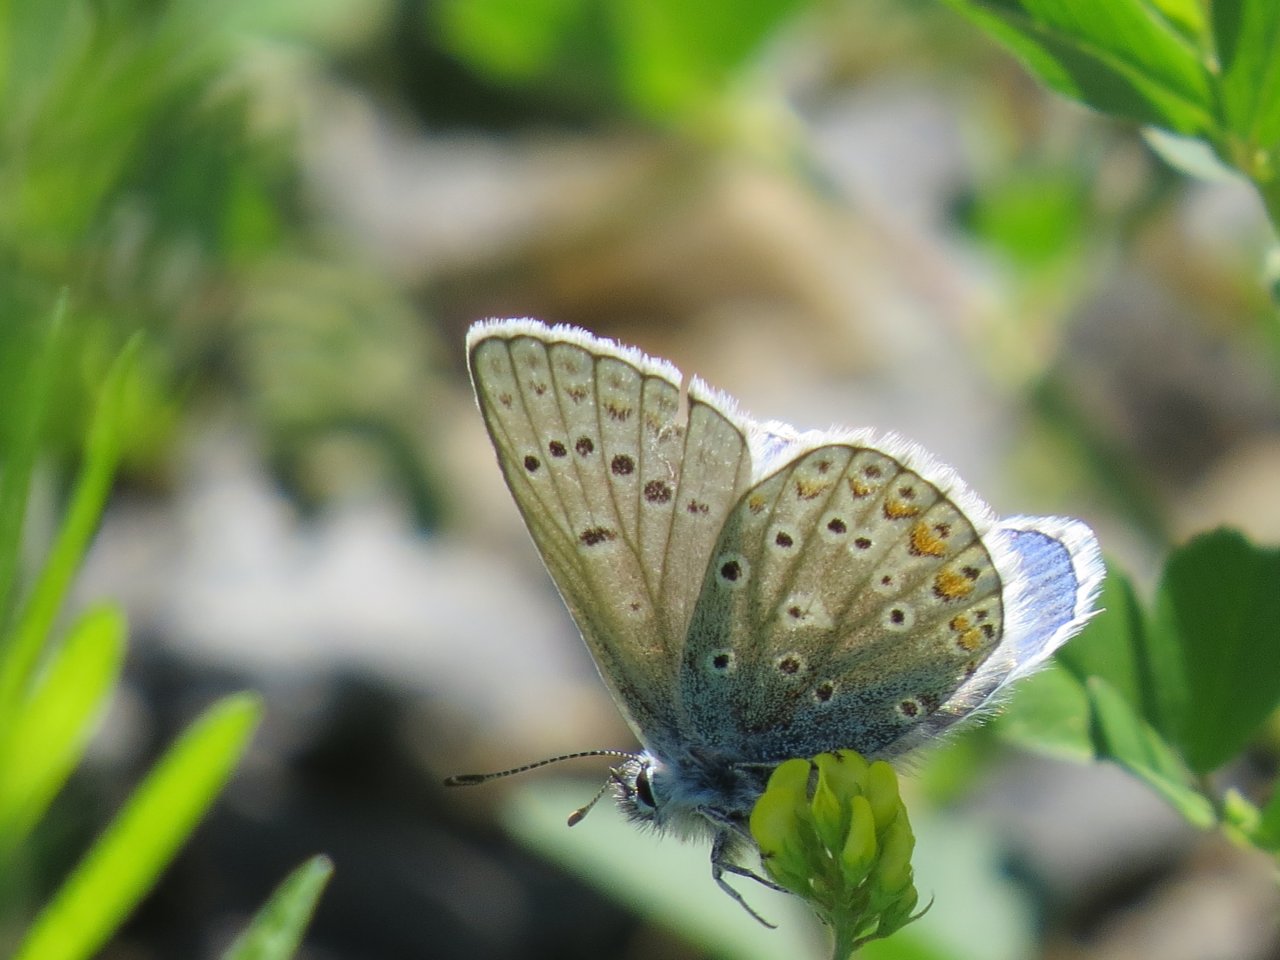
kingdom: Animalia
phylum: Arthropoda
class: Insecta
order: Lepidoptera
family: Lycaenidae
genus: Polyommatus
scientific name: Polyommatus icarus
